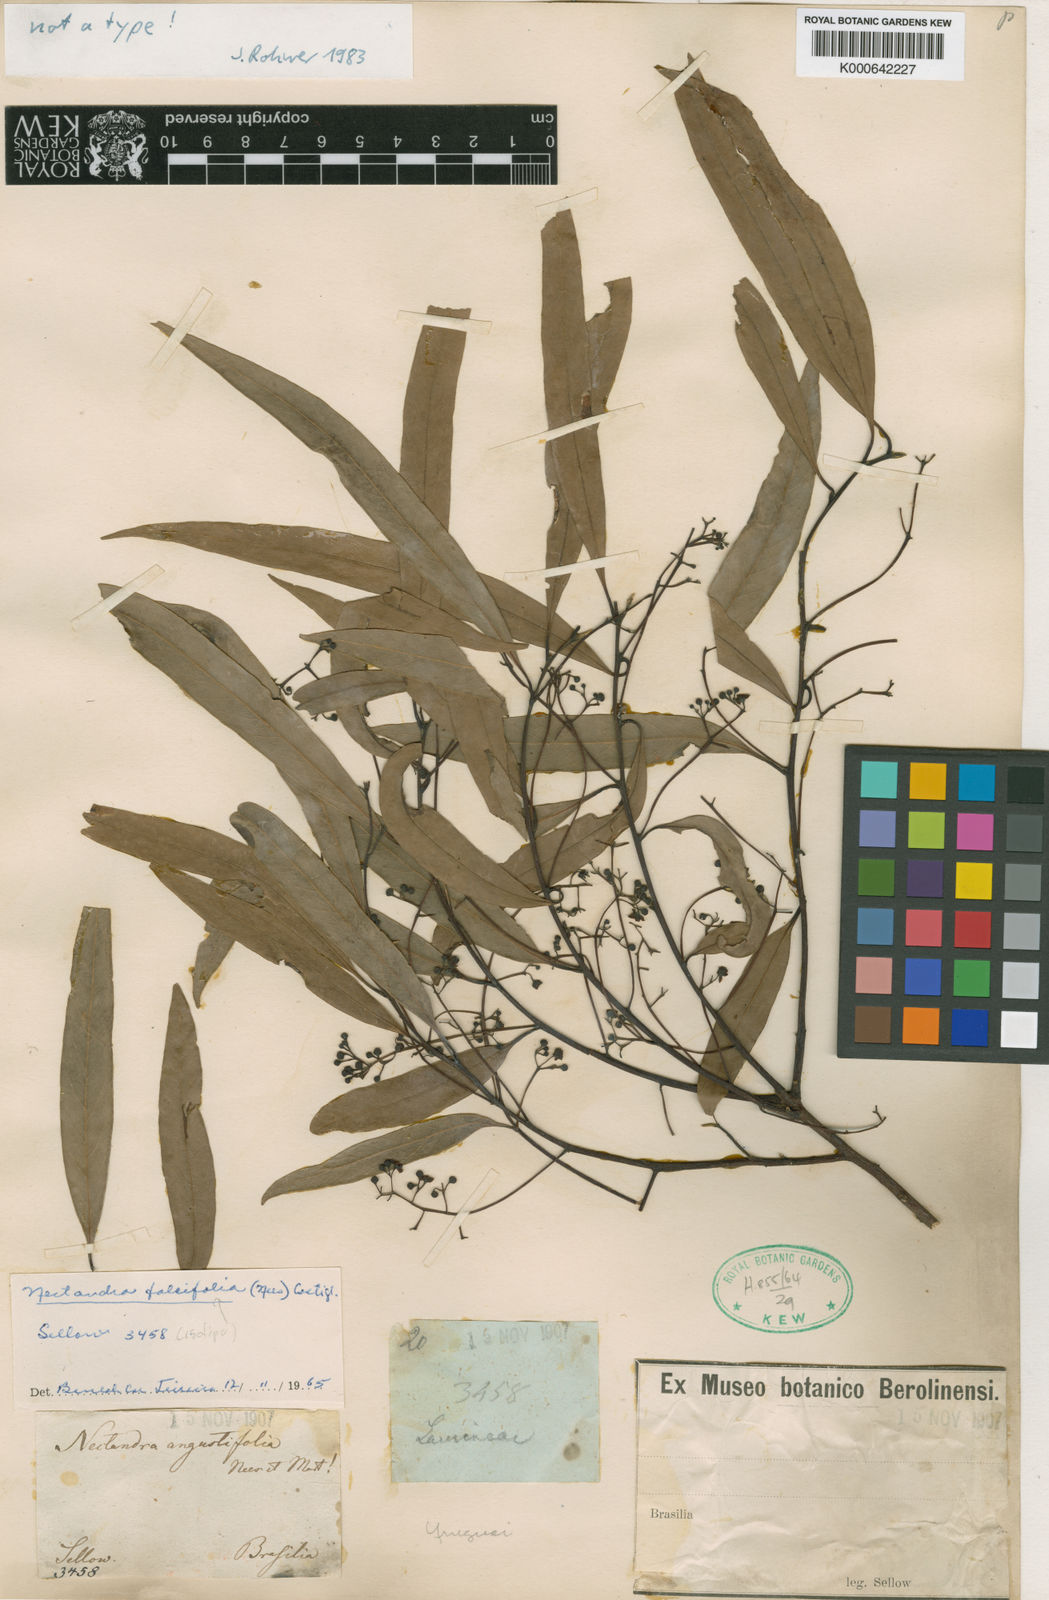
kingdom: Plantae
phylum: Tracheophyta
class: Magnoliopsida
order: Laurales
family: Lauraceae
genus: Nectandra
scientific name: Nectandra angustifolia
